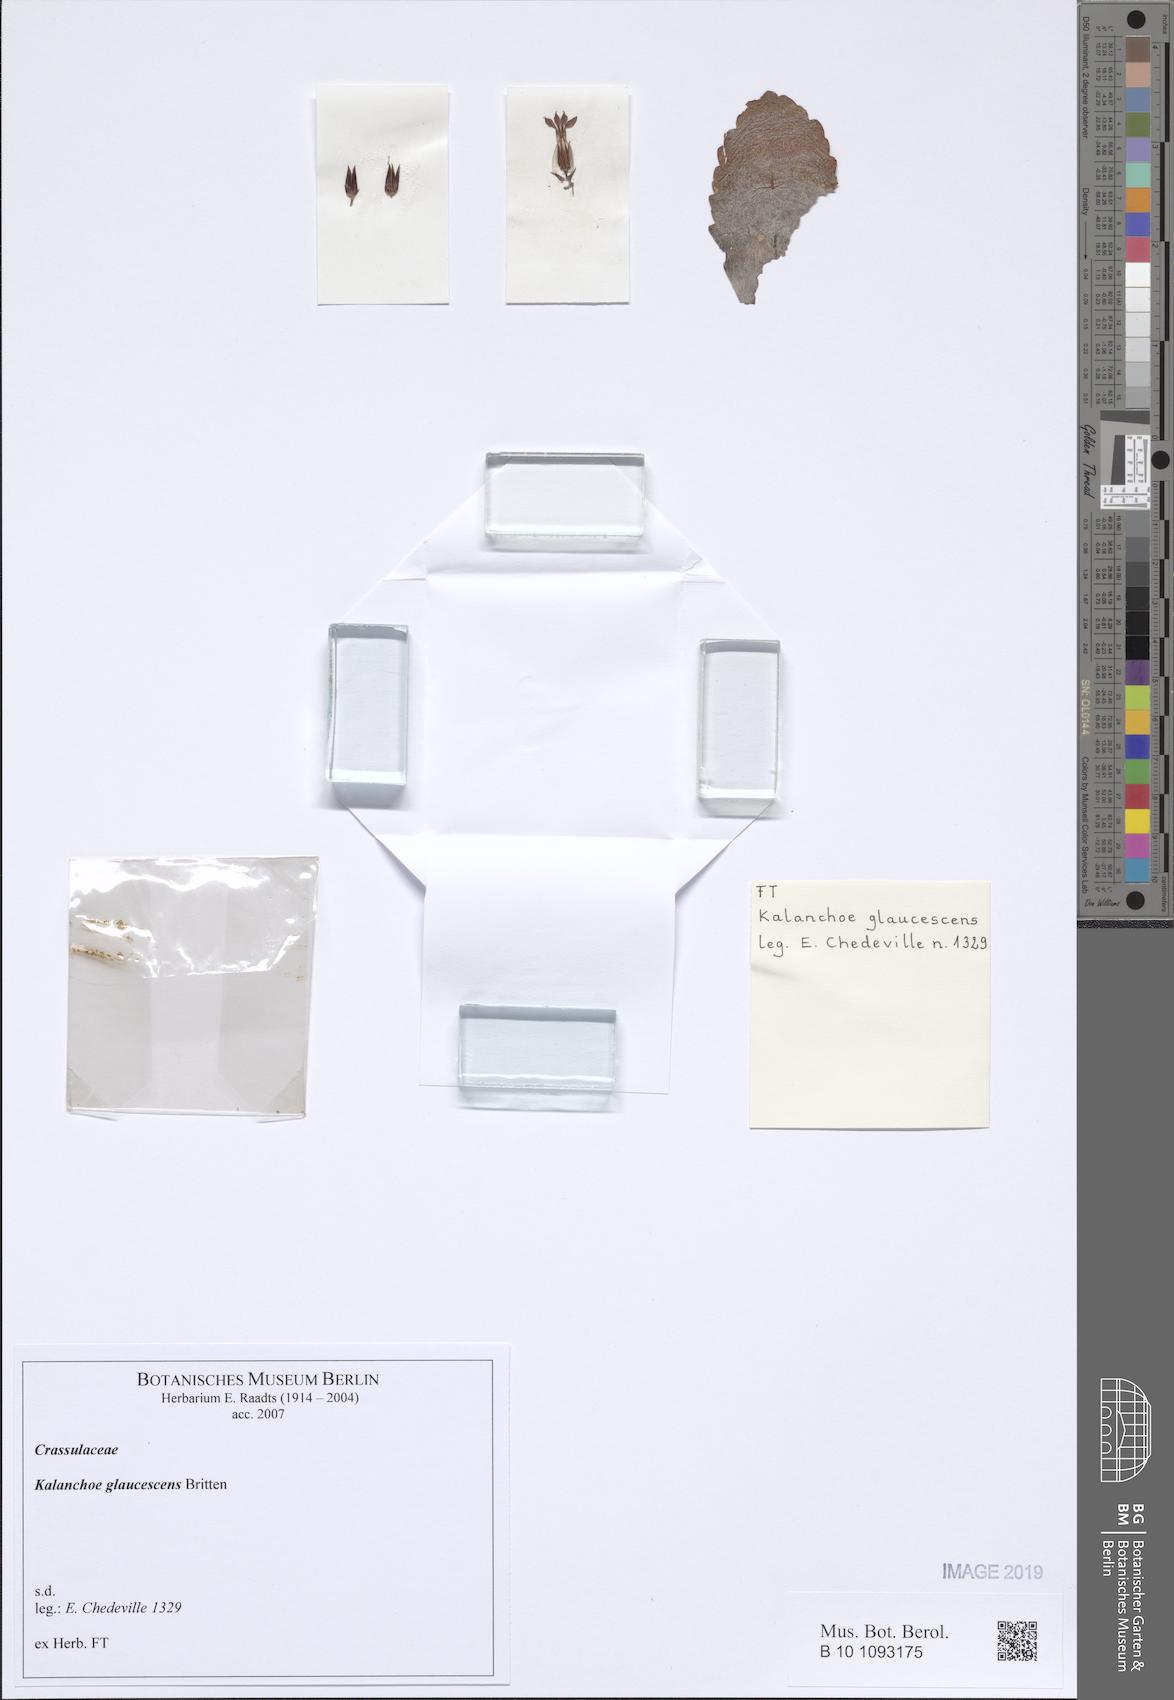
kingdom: Plantae
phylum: Tracheophyta
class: Magnoliopsida
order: Saxifragales
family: Crassulaceae
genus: Kalanchoe
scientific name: Kalanchoe glaucescens
